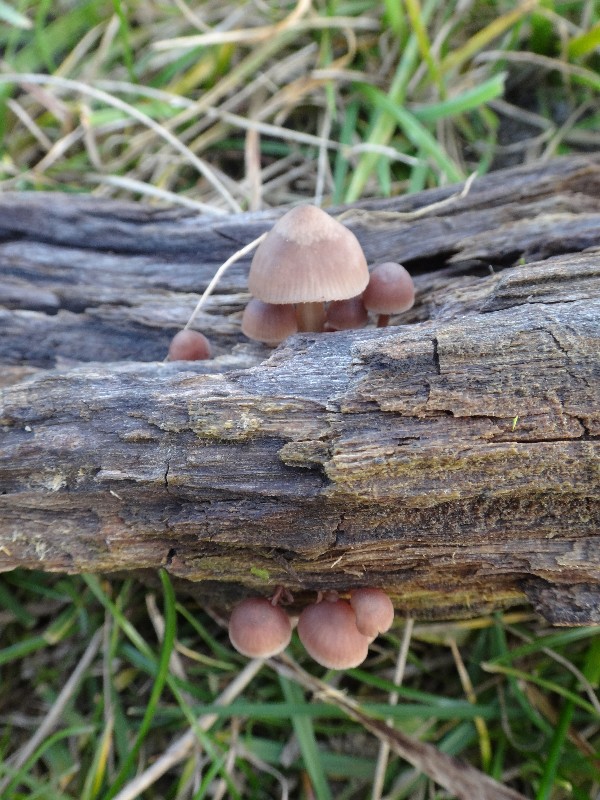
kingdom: Fungi
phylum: Basidiomycota
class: Agaricomycetes
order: Agaricales
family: Mycenaceae
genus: Mycena
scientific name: Mycena haematopus
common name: blødende huesvamp
